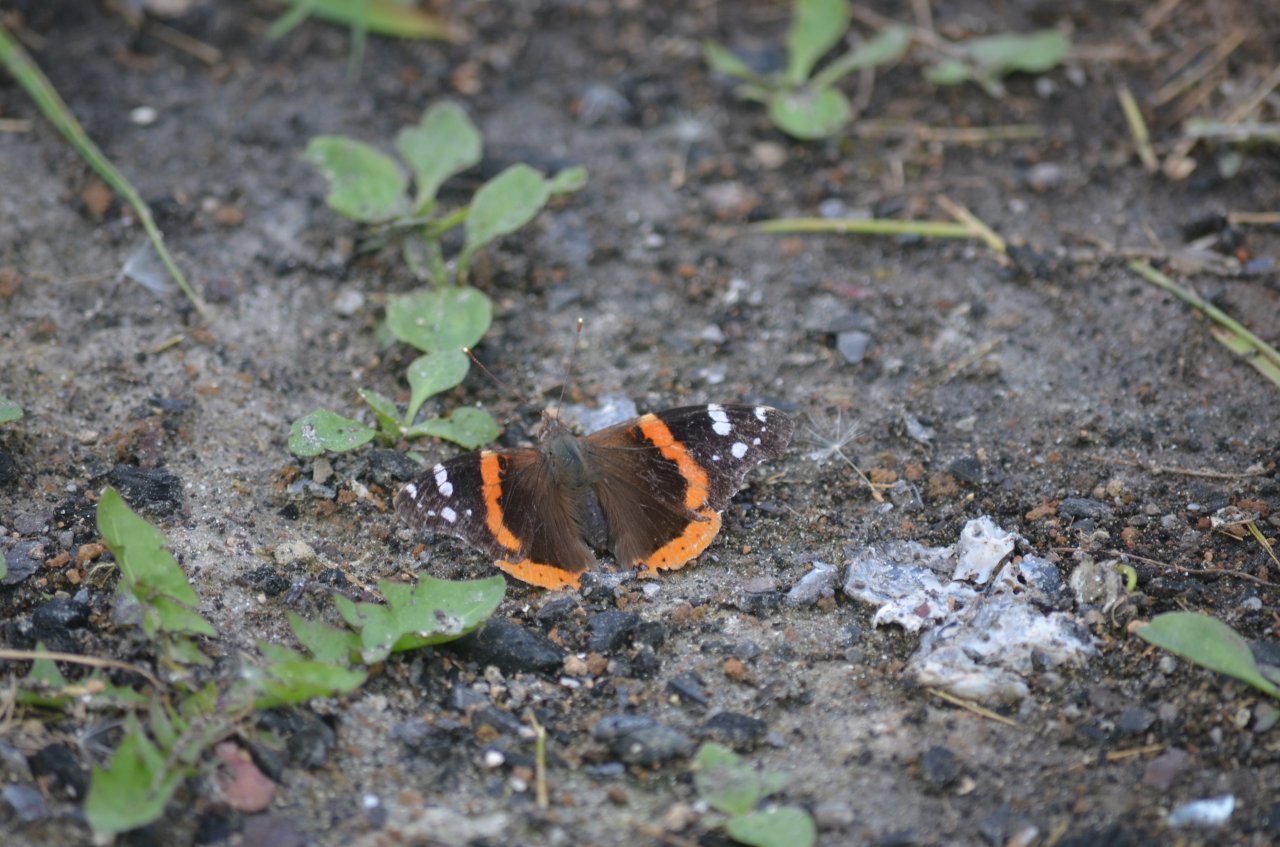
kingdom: Animalia
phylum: Arthropoda
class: Insecta
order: Lepidoptera
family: Nymphalidae
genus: Vanessa
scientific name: Vanessa atalanta
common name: Red Admiral
